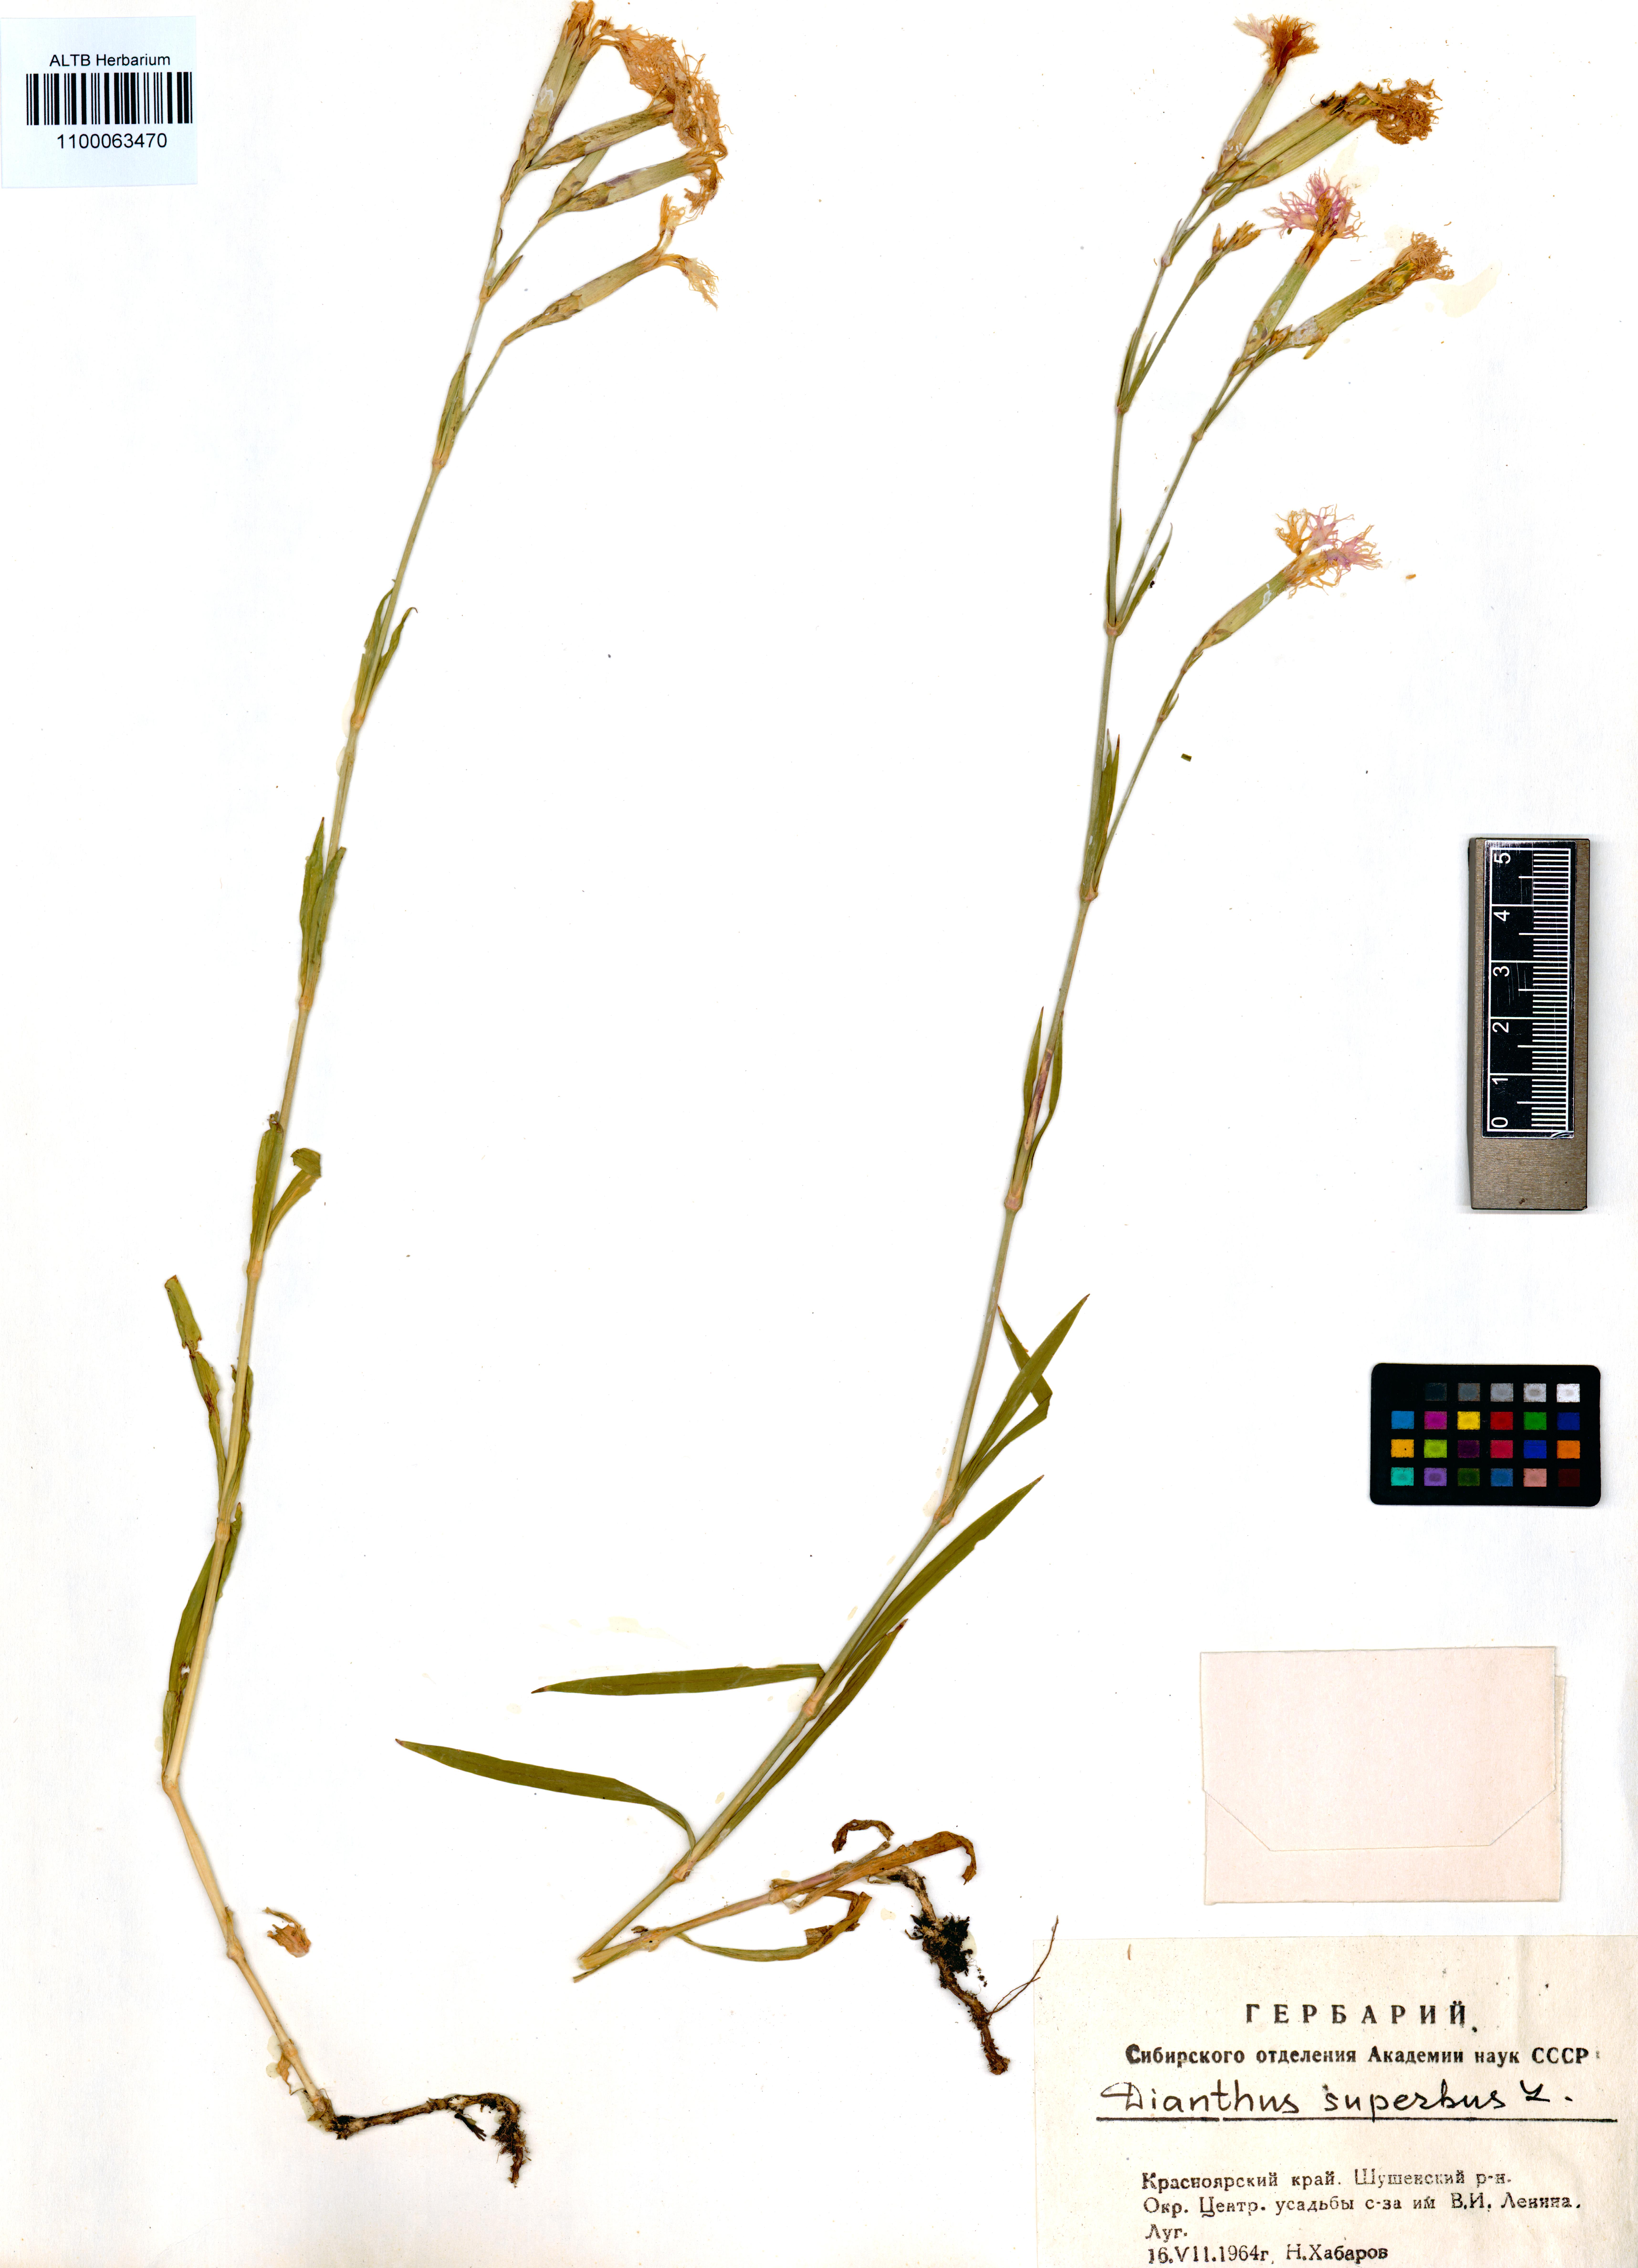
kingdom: Plantae
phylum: Tracheophyta
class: Magnoliopsida
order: Caryophyllales
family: Caryophyllaceae
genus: Dianthus
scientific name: Dianthus superbus
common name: Fringed pink
